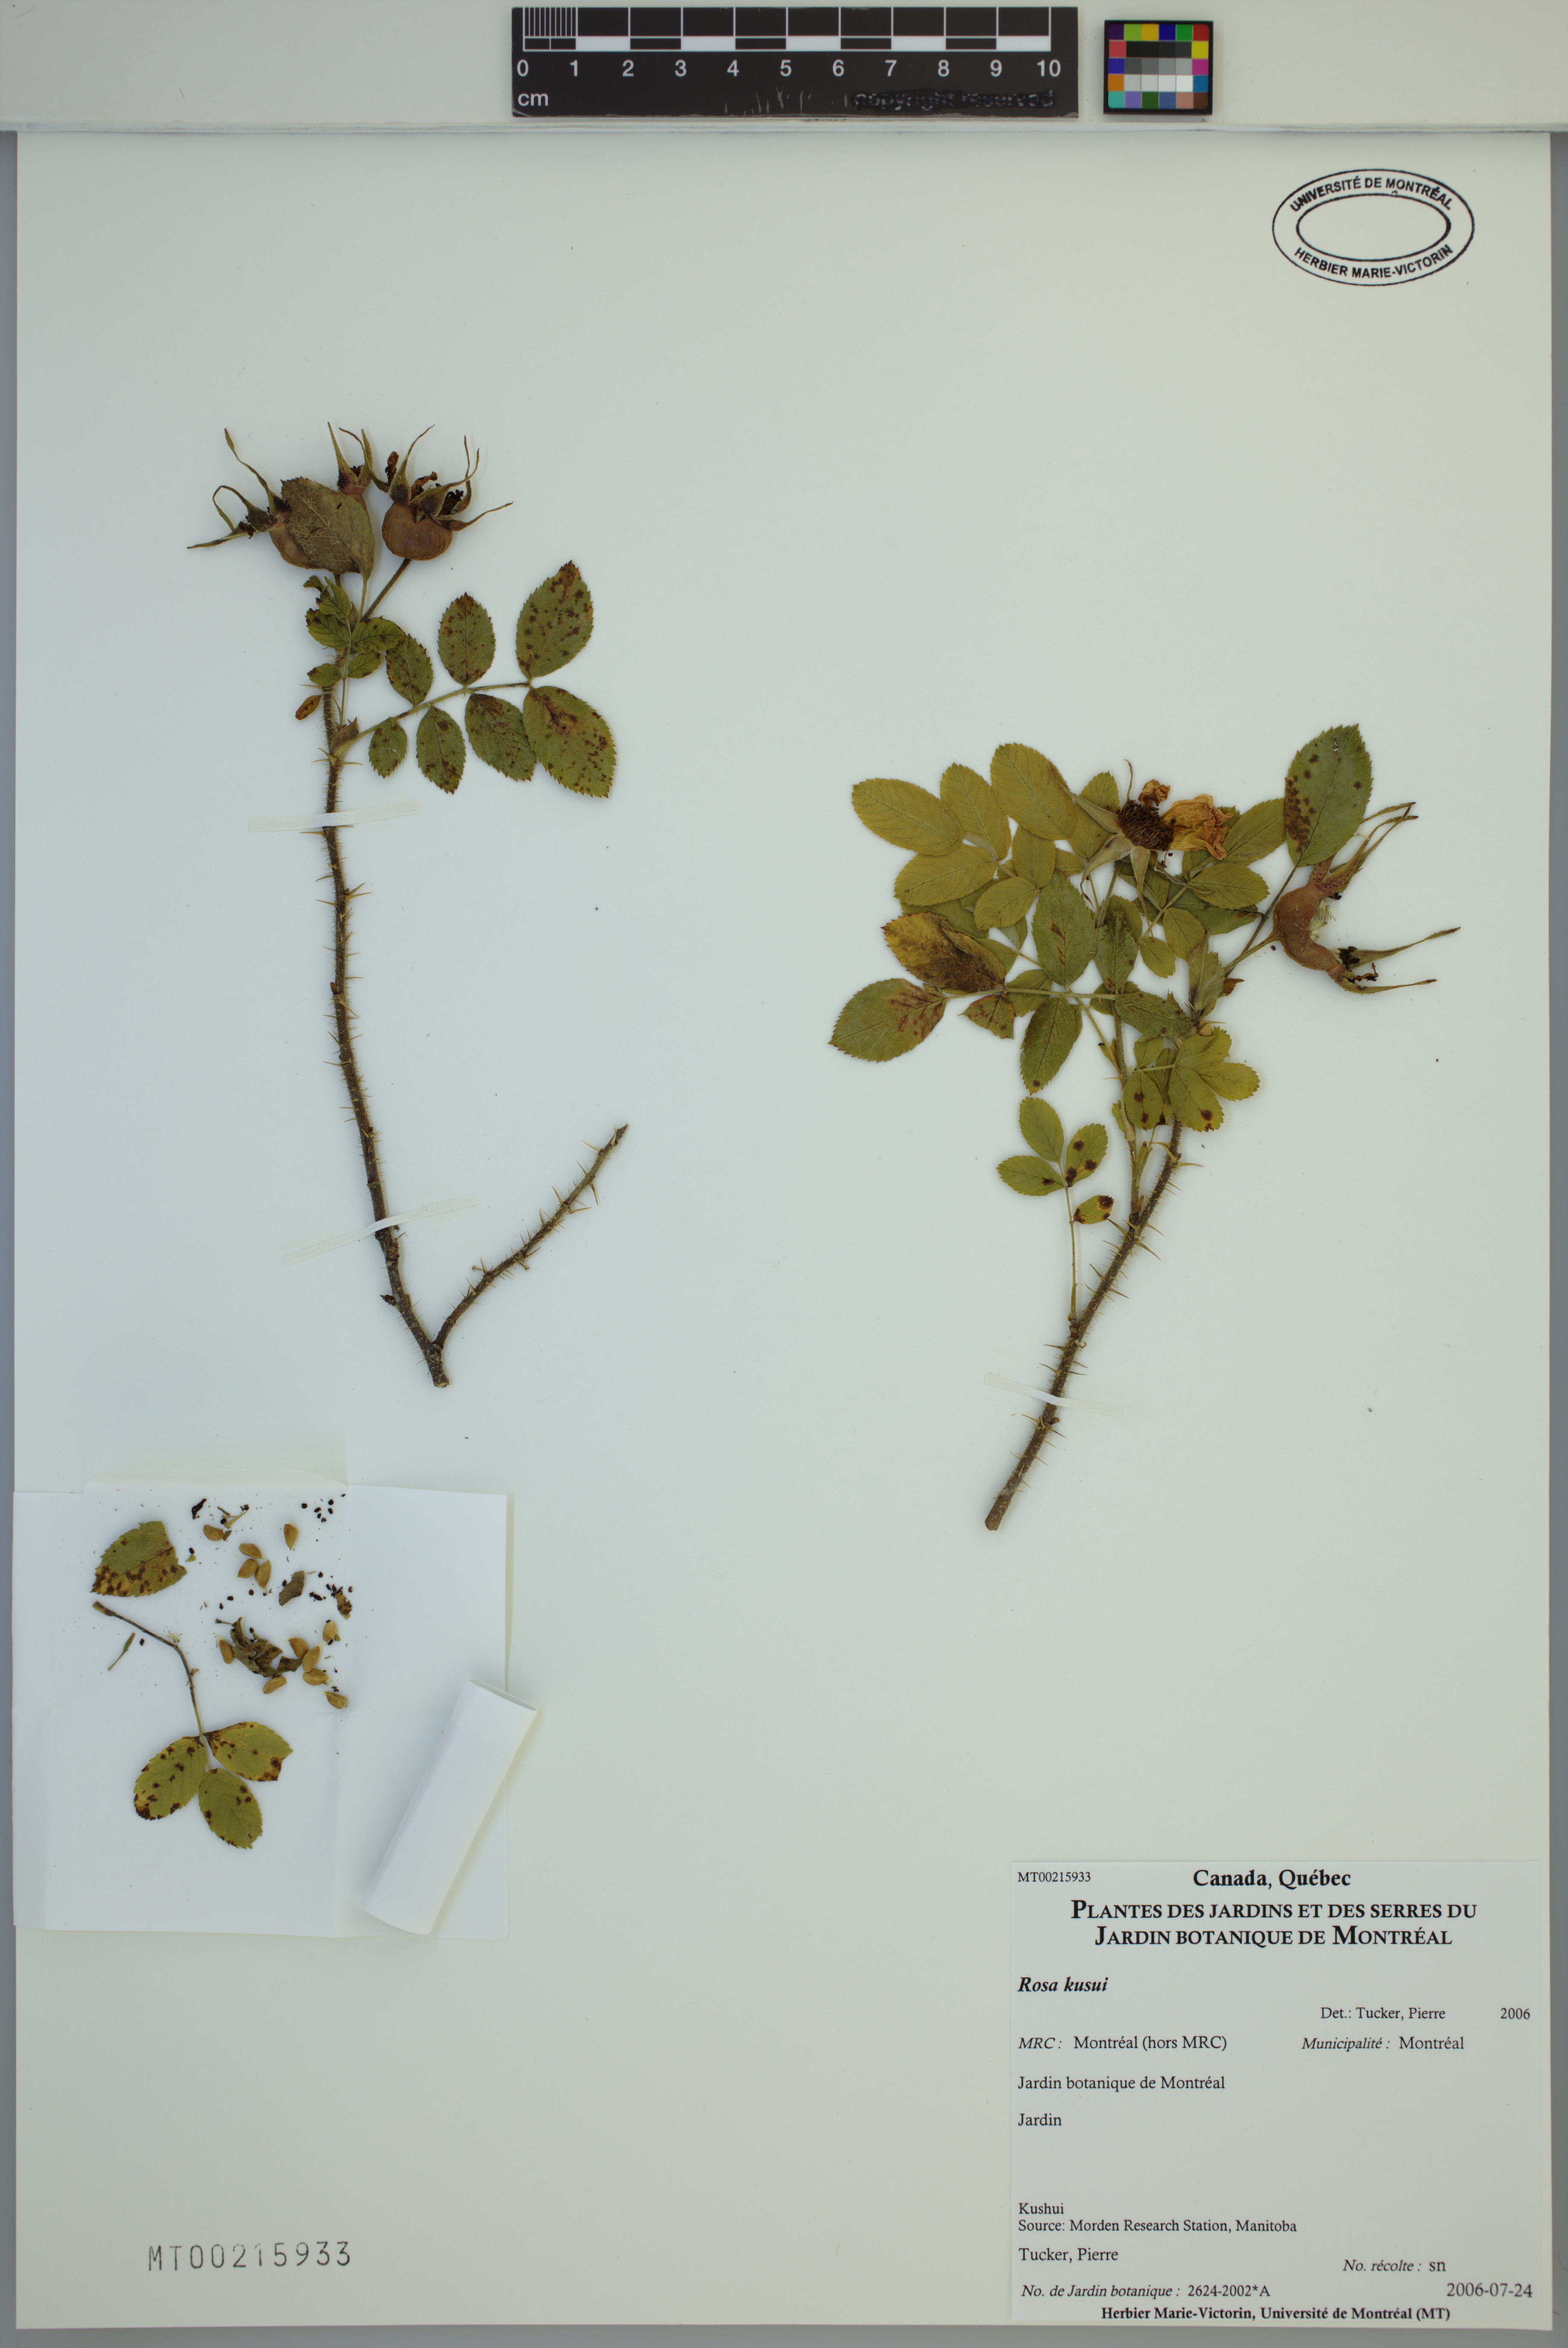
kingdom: Plantae
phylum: Tracheophyta
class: Magnoliopsida
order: Rosales
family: Rosaceae
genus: Rosa
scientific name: Rosa
